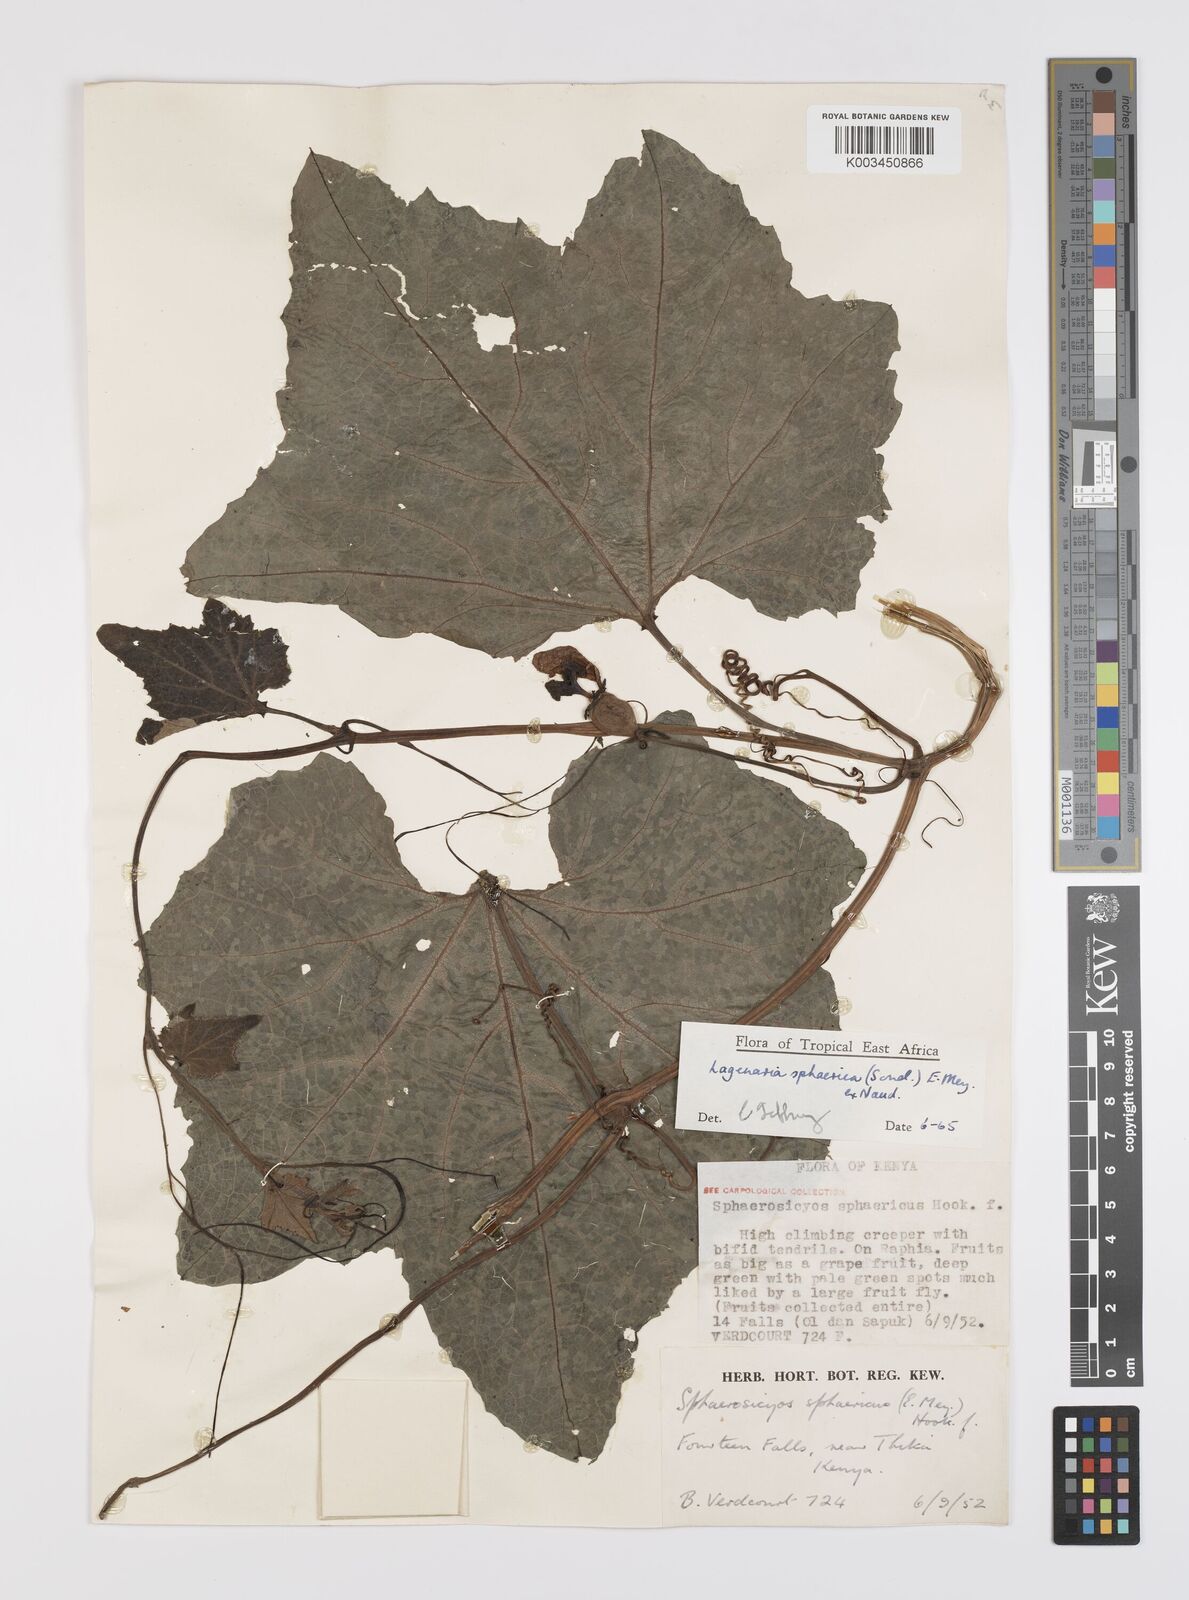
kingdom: Plantae
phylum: Tracheophyta
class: Magnoliopsida
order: Cucurbitales
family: Cucurbitaceae
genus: Lagenaria
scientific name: Lagenaria sphaerica
